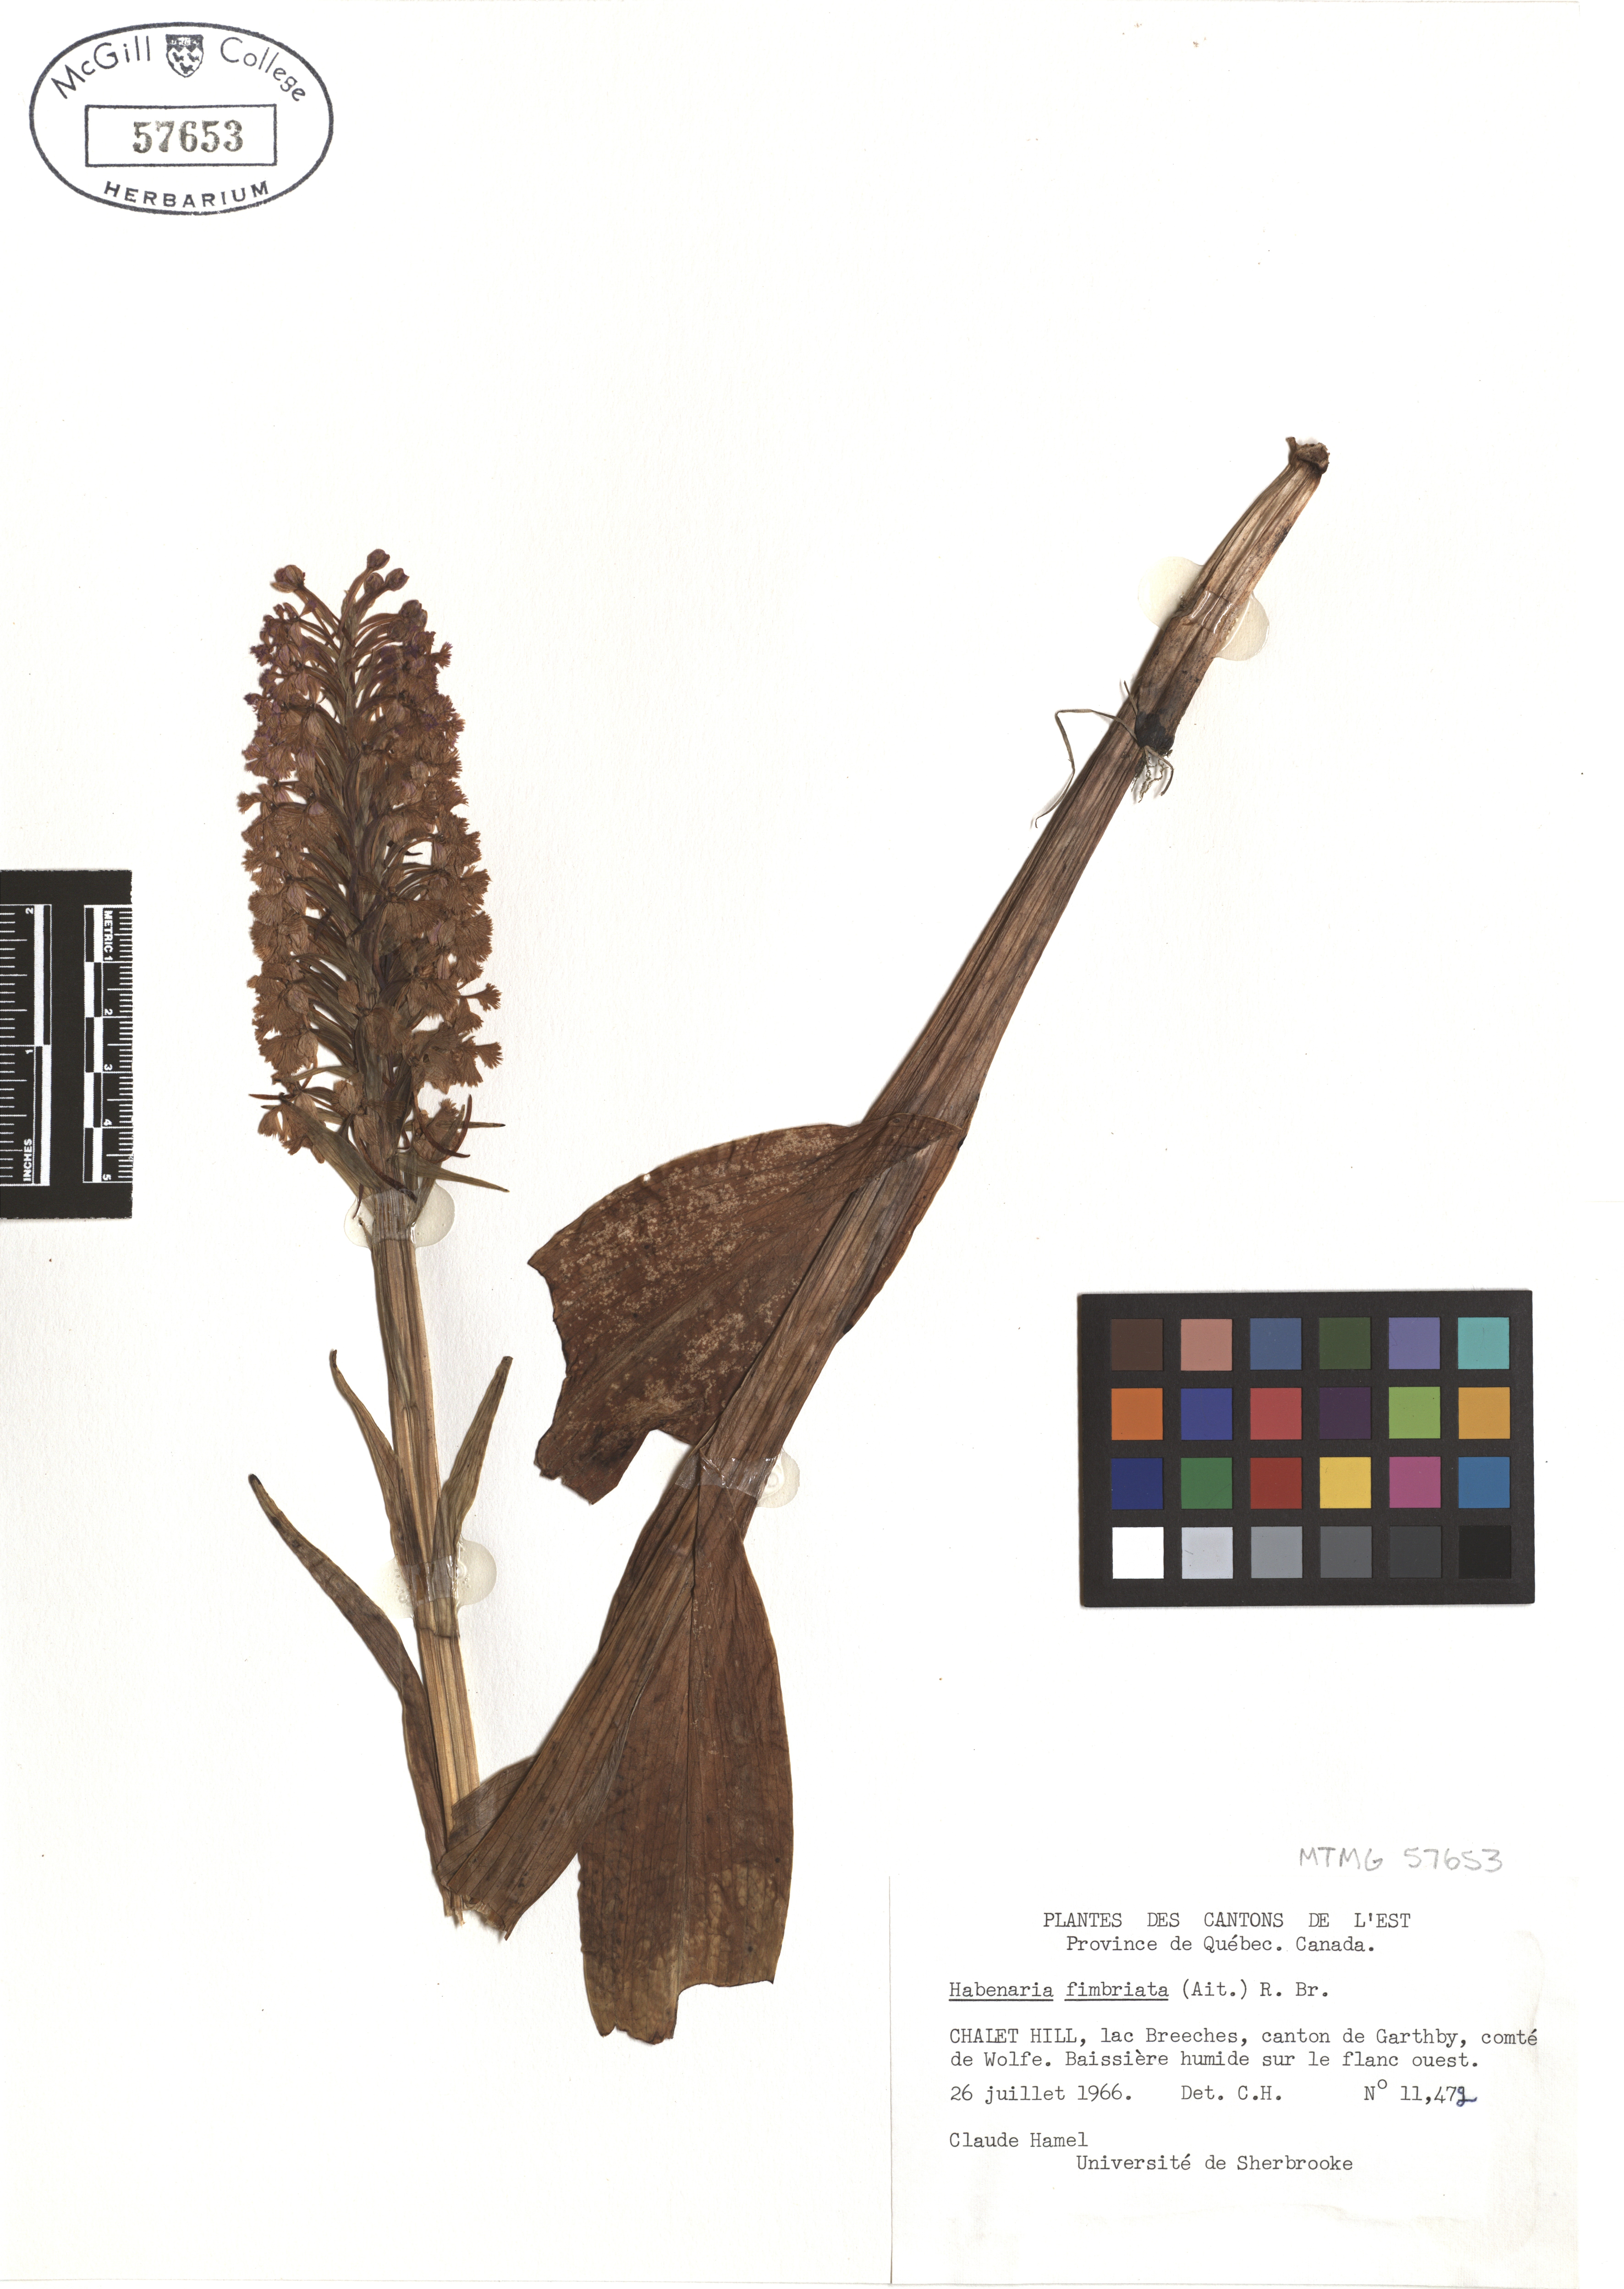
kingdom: Plantae
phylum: Tracheophyta
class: Liliopsida
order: Asparagales
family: Orchidaceae
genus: Platanthera
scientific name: Platanthera grandiflora
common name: Greater purple fringed orchid
